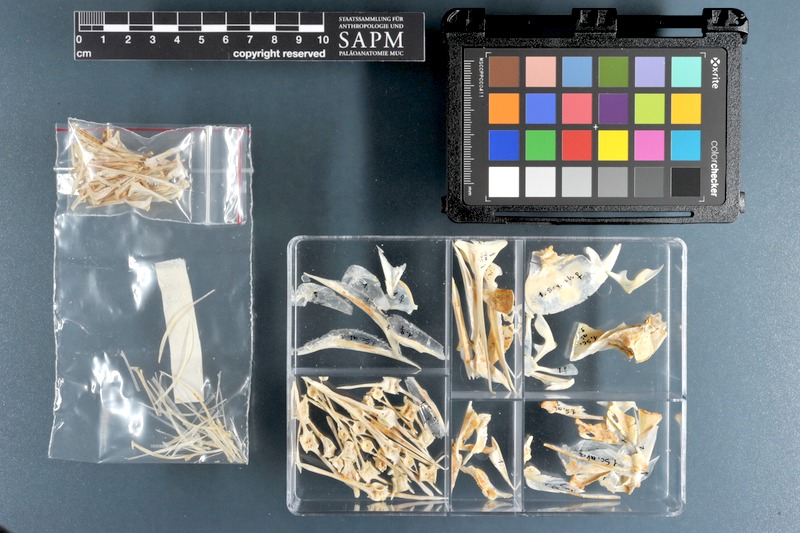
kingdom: Animalia
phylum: Chordata
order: Perciformes
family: Carangidae
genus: Alectis
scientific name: Alectis alexandrina
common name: Alexandria pompano
